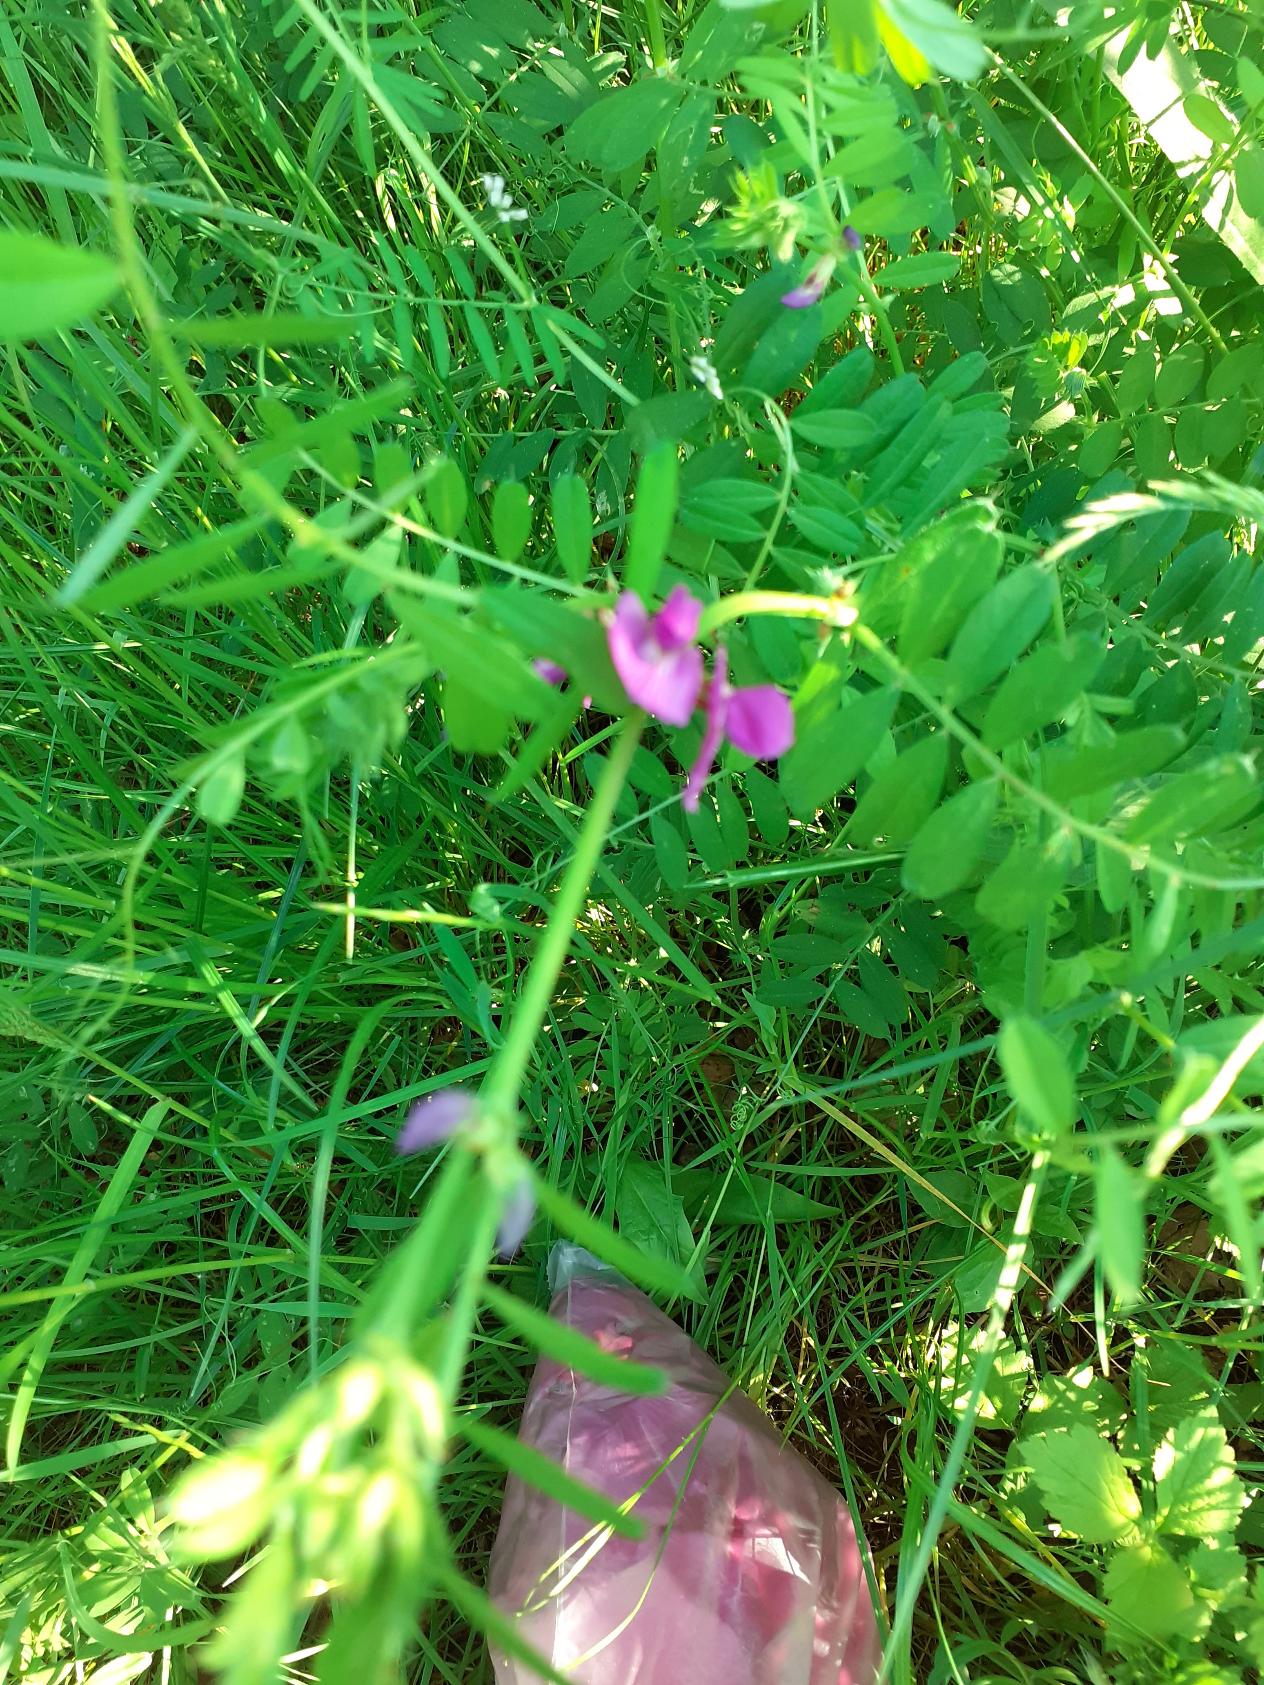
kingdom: Plantae
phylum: Tracheophyta
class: Magnoliopsida
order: Fabales
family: Fabaceae
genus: Vicia
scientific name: Vicia sativa
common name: Foder-vikke
